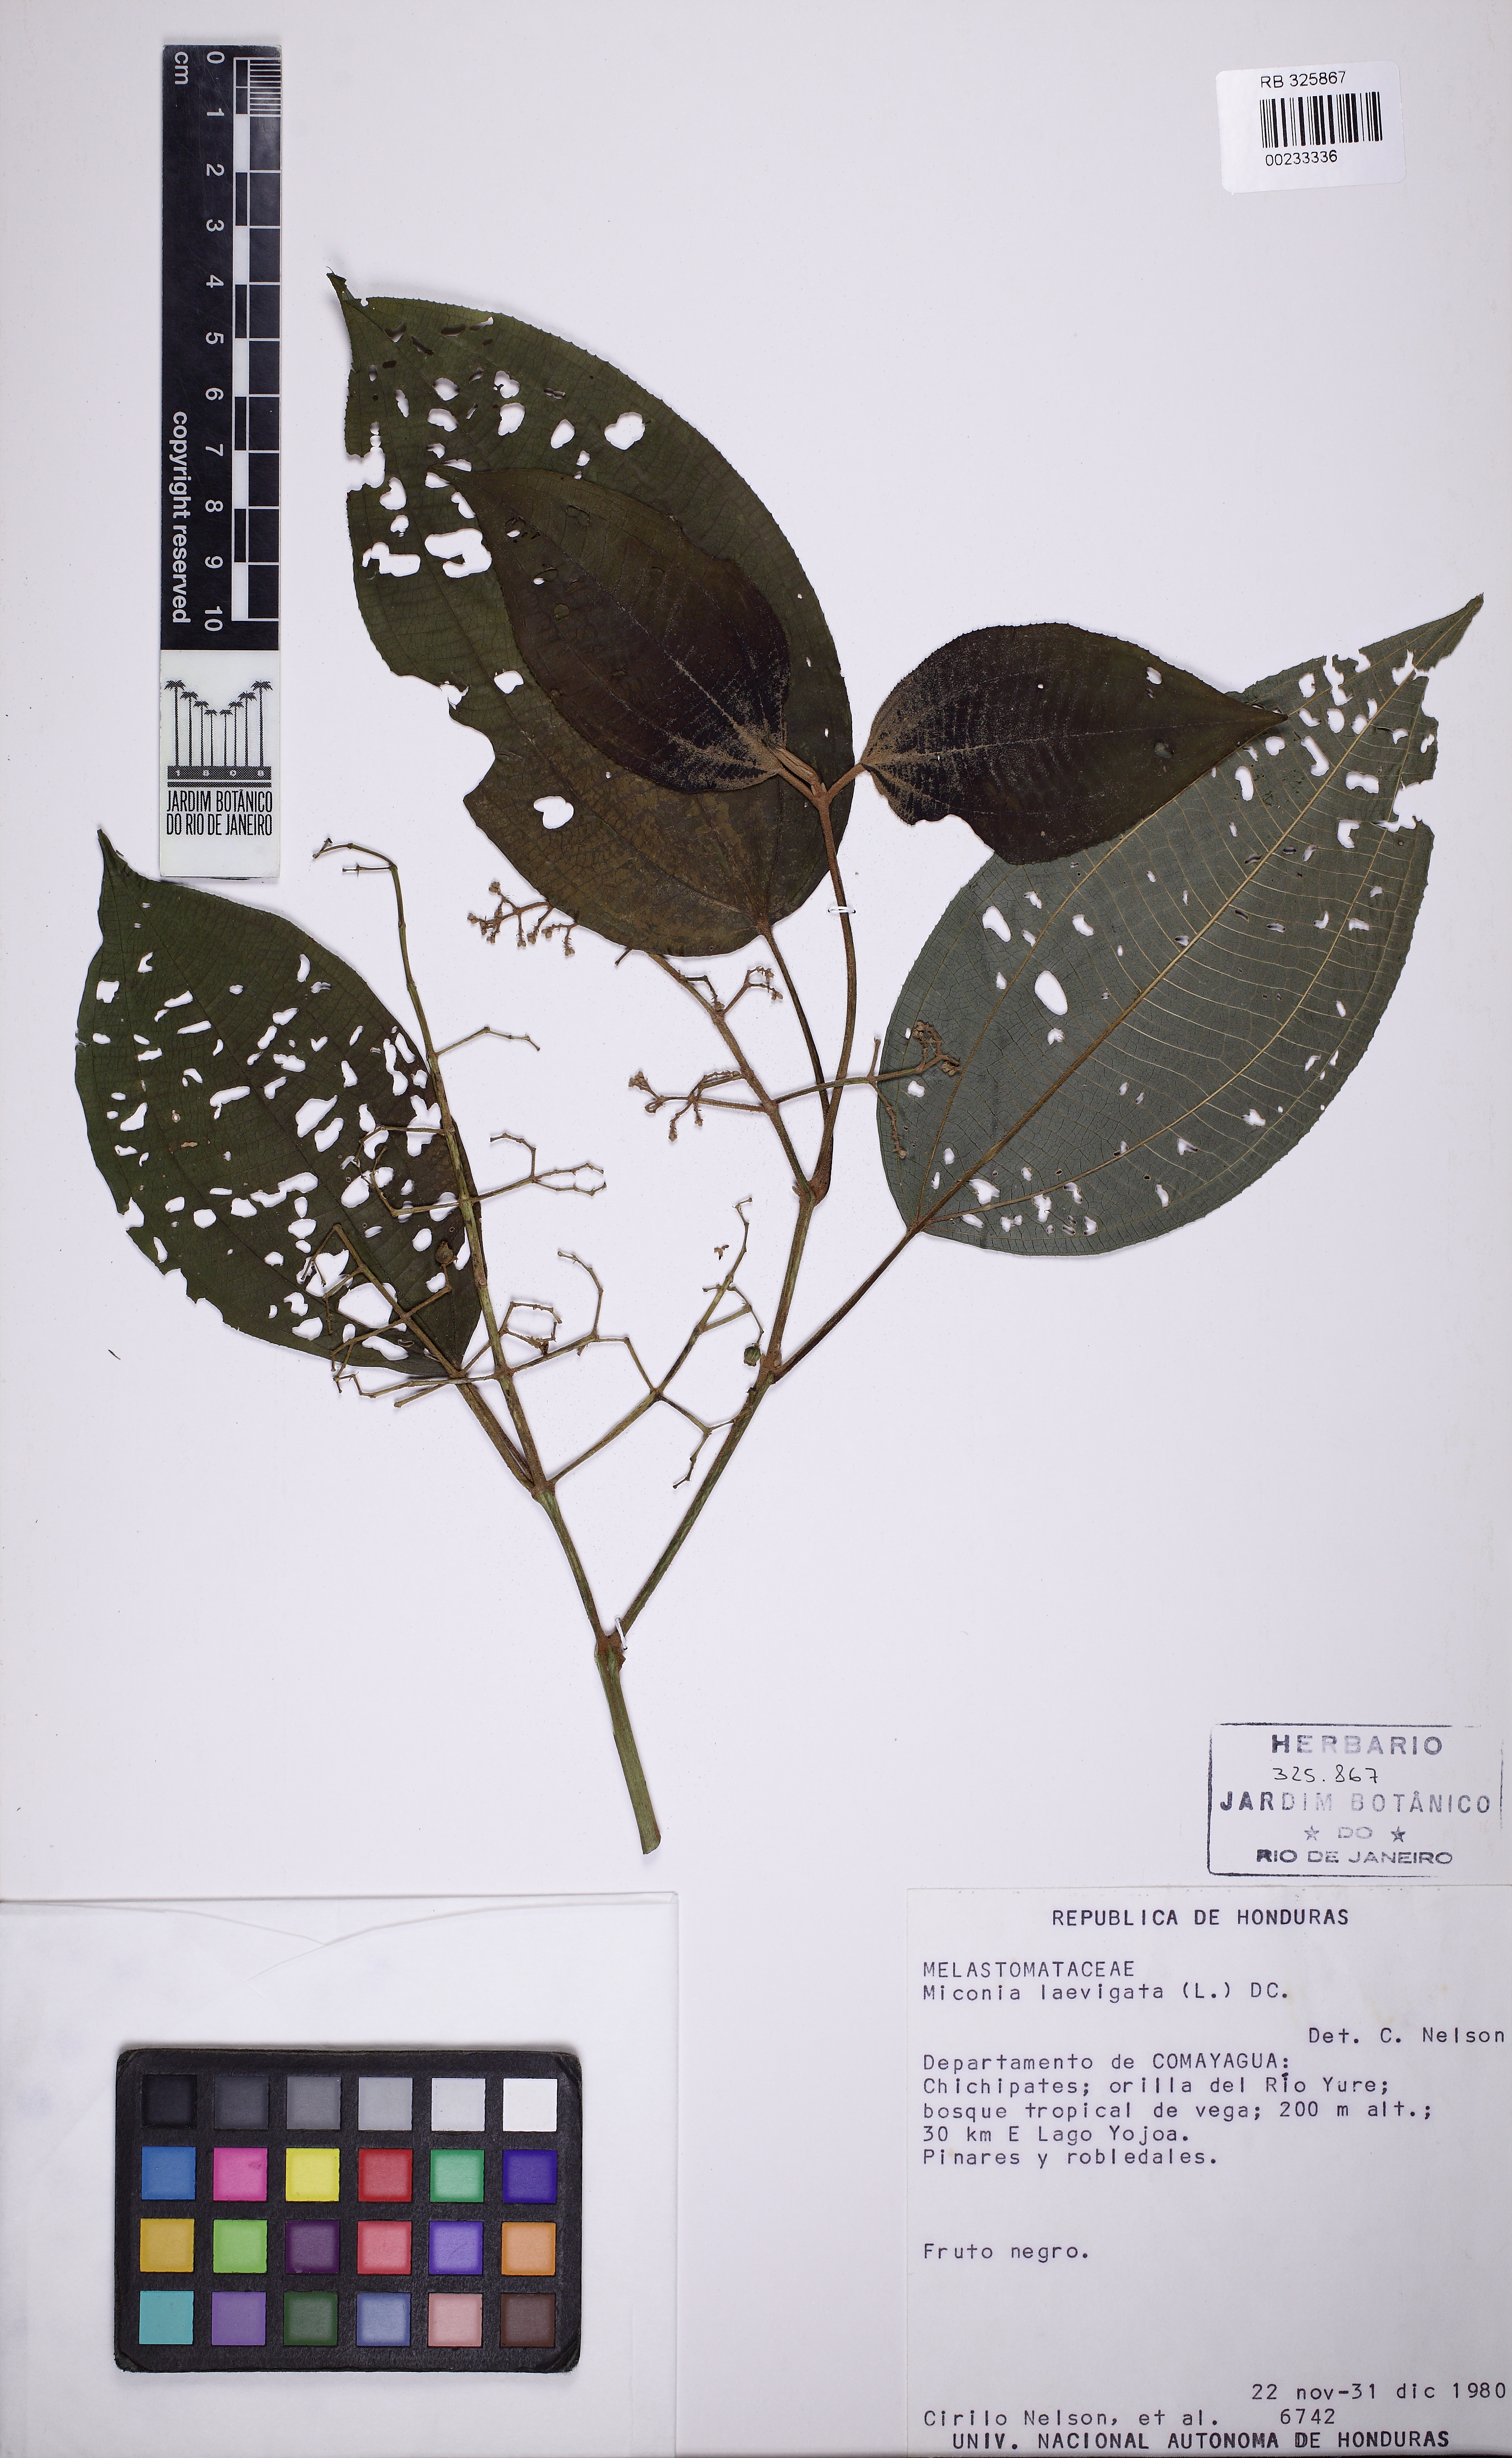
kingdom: Plantae
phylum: Tracheophyta
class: Magnoliopsida
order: Myrtales
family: Melastomataceae
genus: Miconia
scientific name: Miconia laevigata
